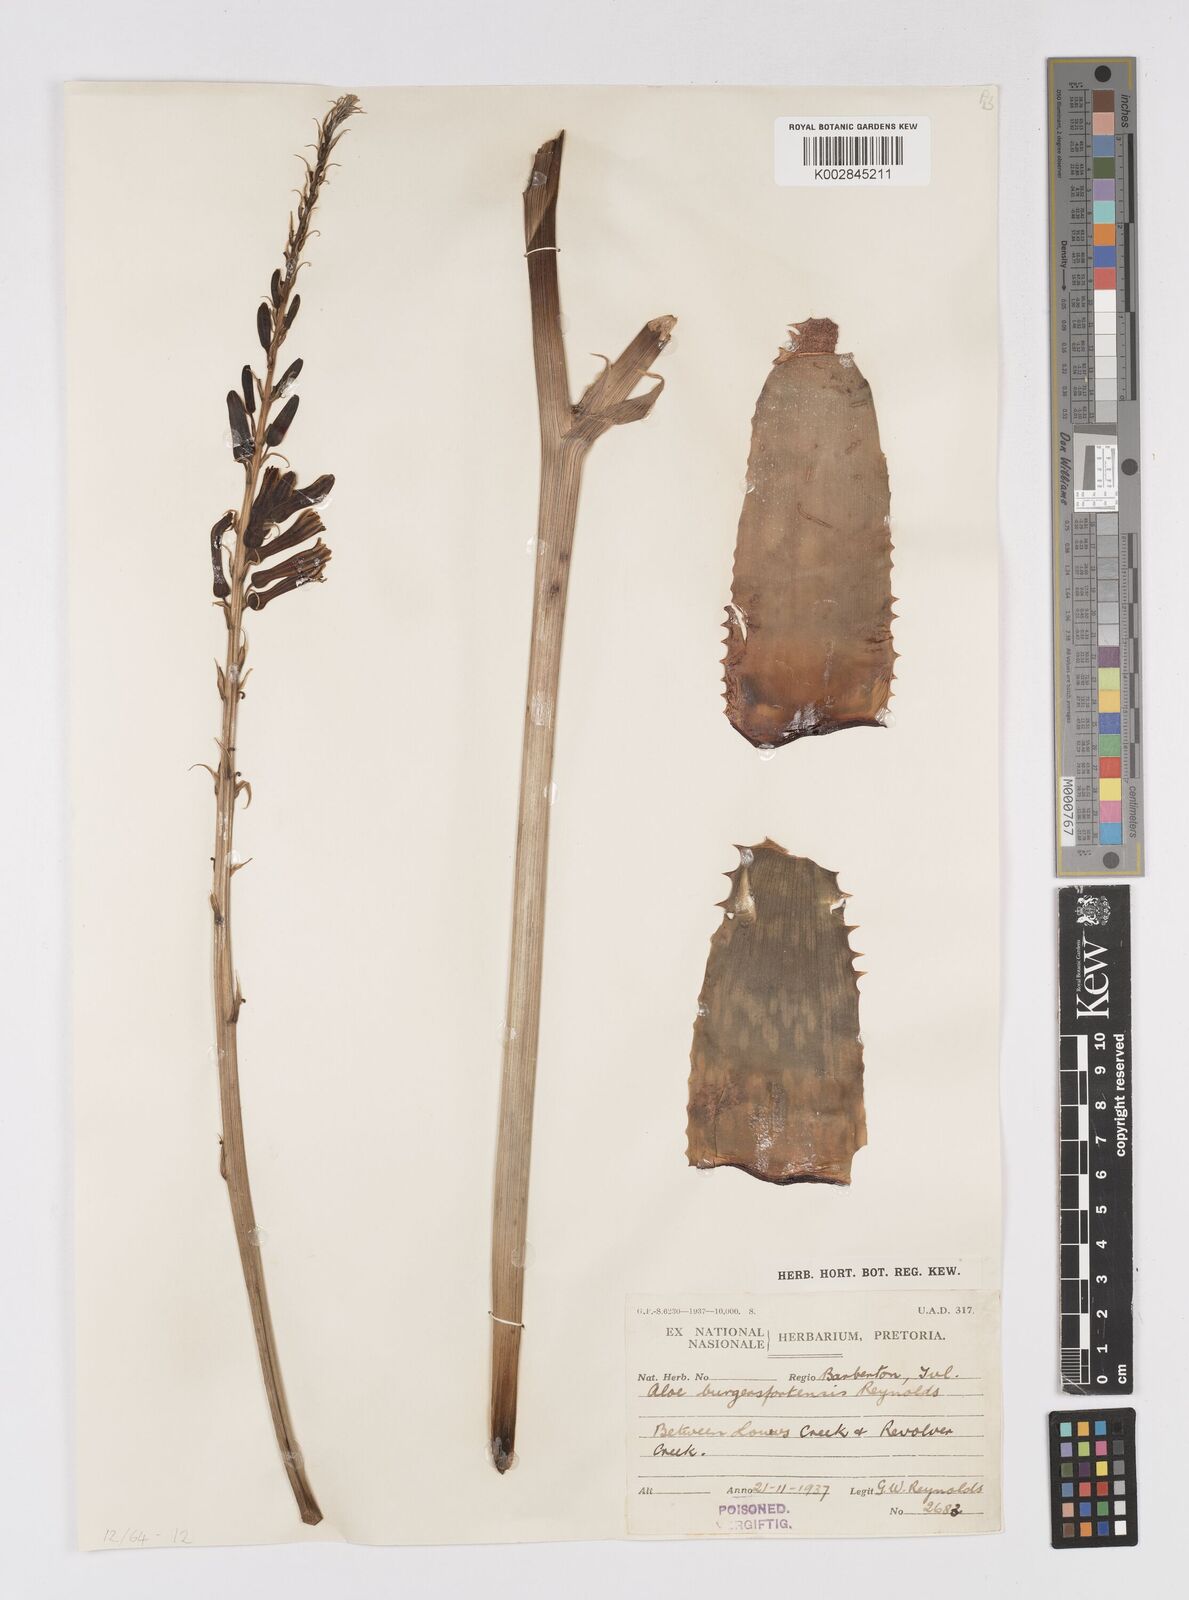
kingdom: Plantae
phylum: Tracheophyta
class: Liliopsida
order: Asparagales
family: Asphodelaceae
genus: Aloe
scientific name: Aloe burgersfortensis
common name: Burgersfort aloe
